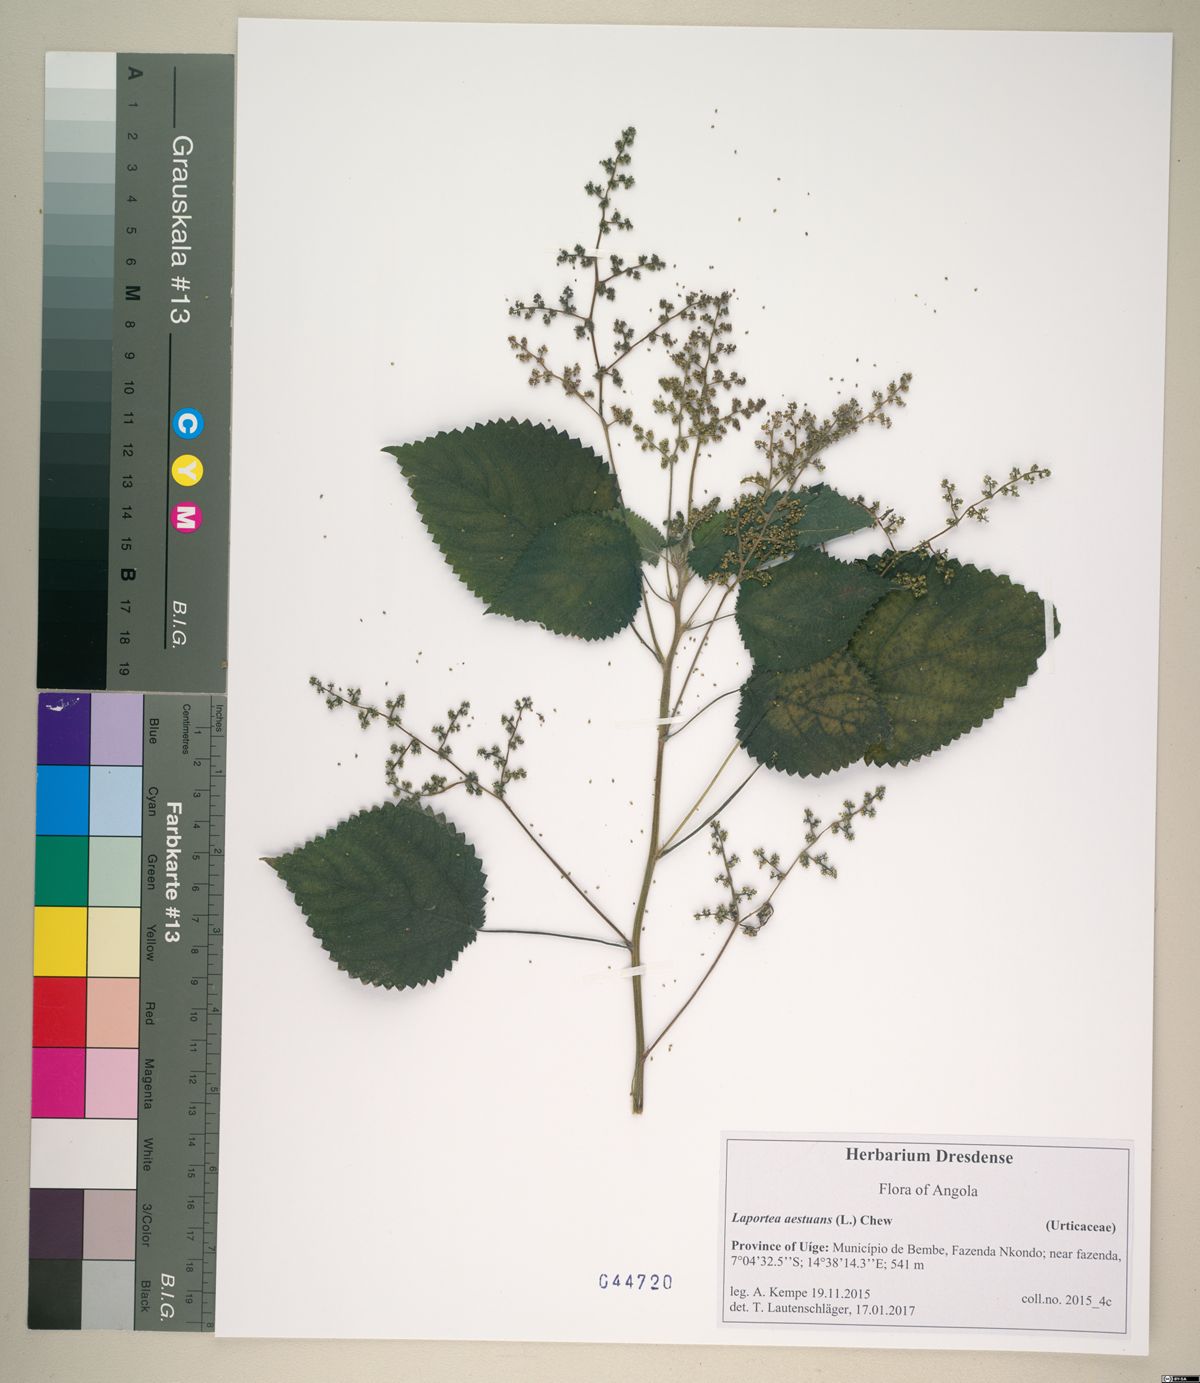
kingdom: Plantae
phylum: Tracheophyta
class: Magnoliopsida
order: Rosales
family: Urticaceae
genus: Laportea
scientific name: Laportea aestuans
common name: West indian woodnettle
